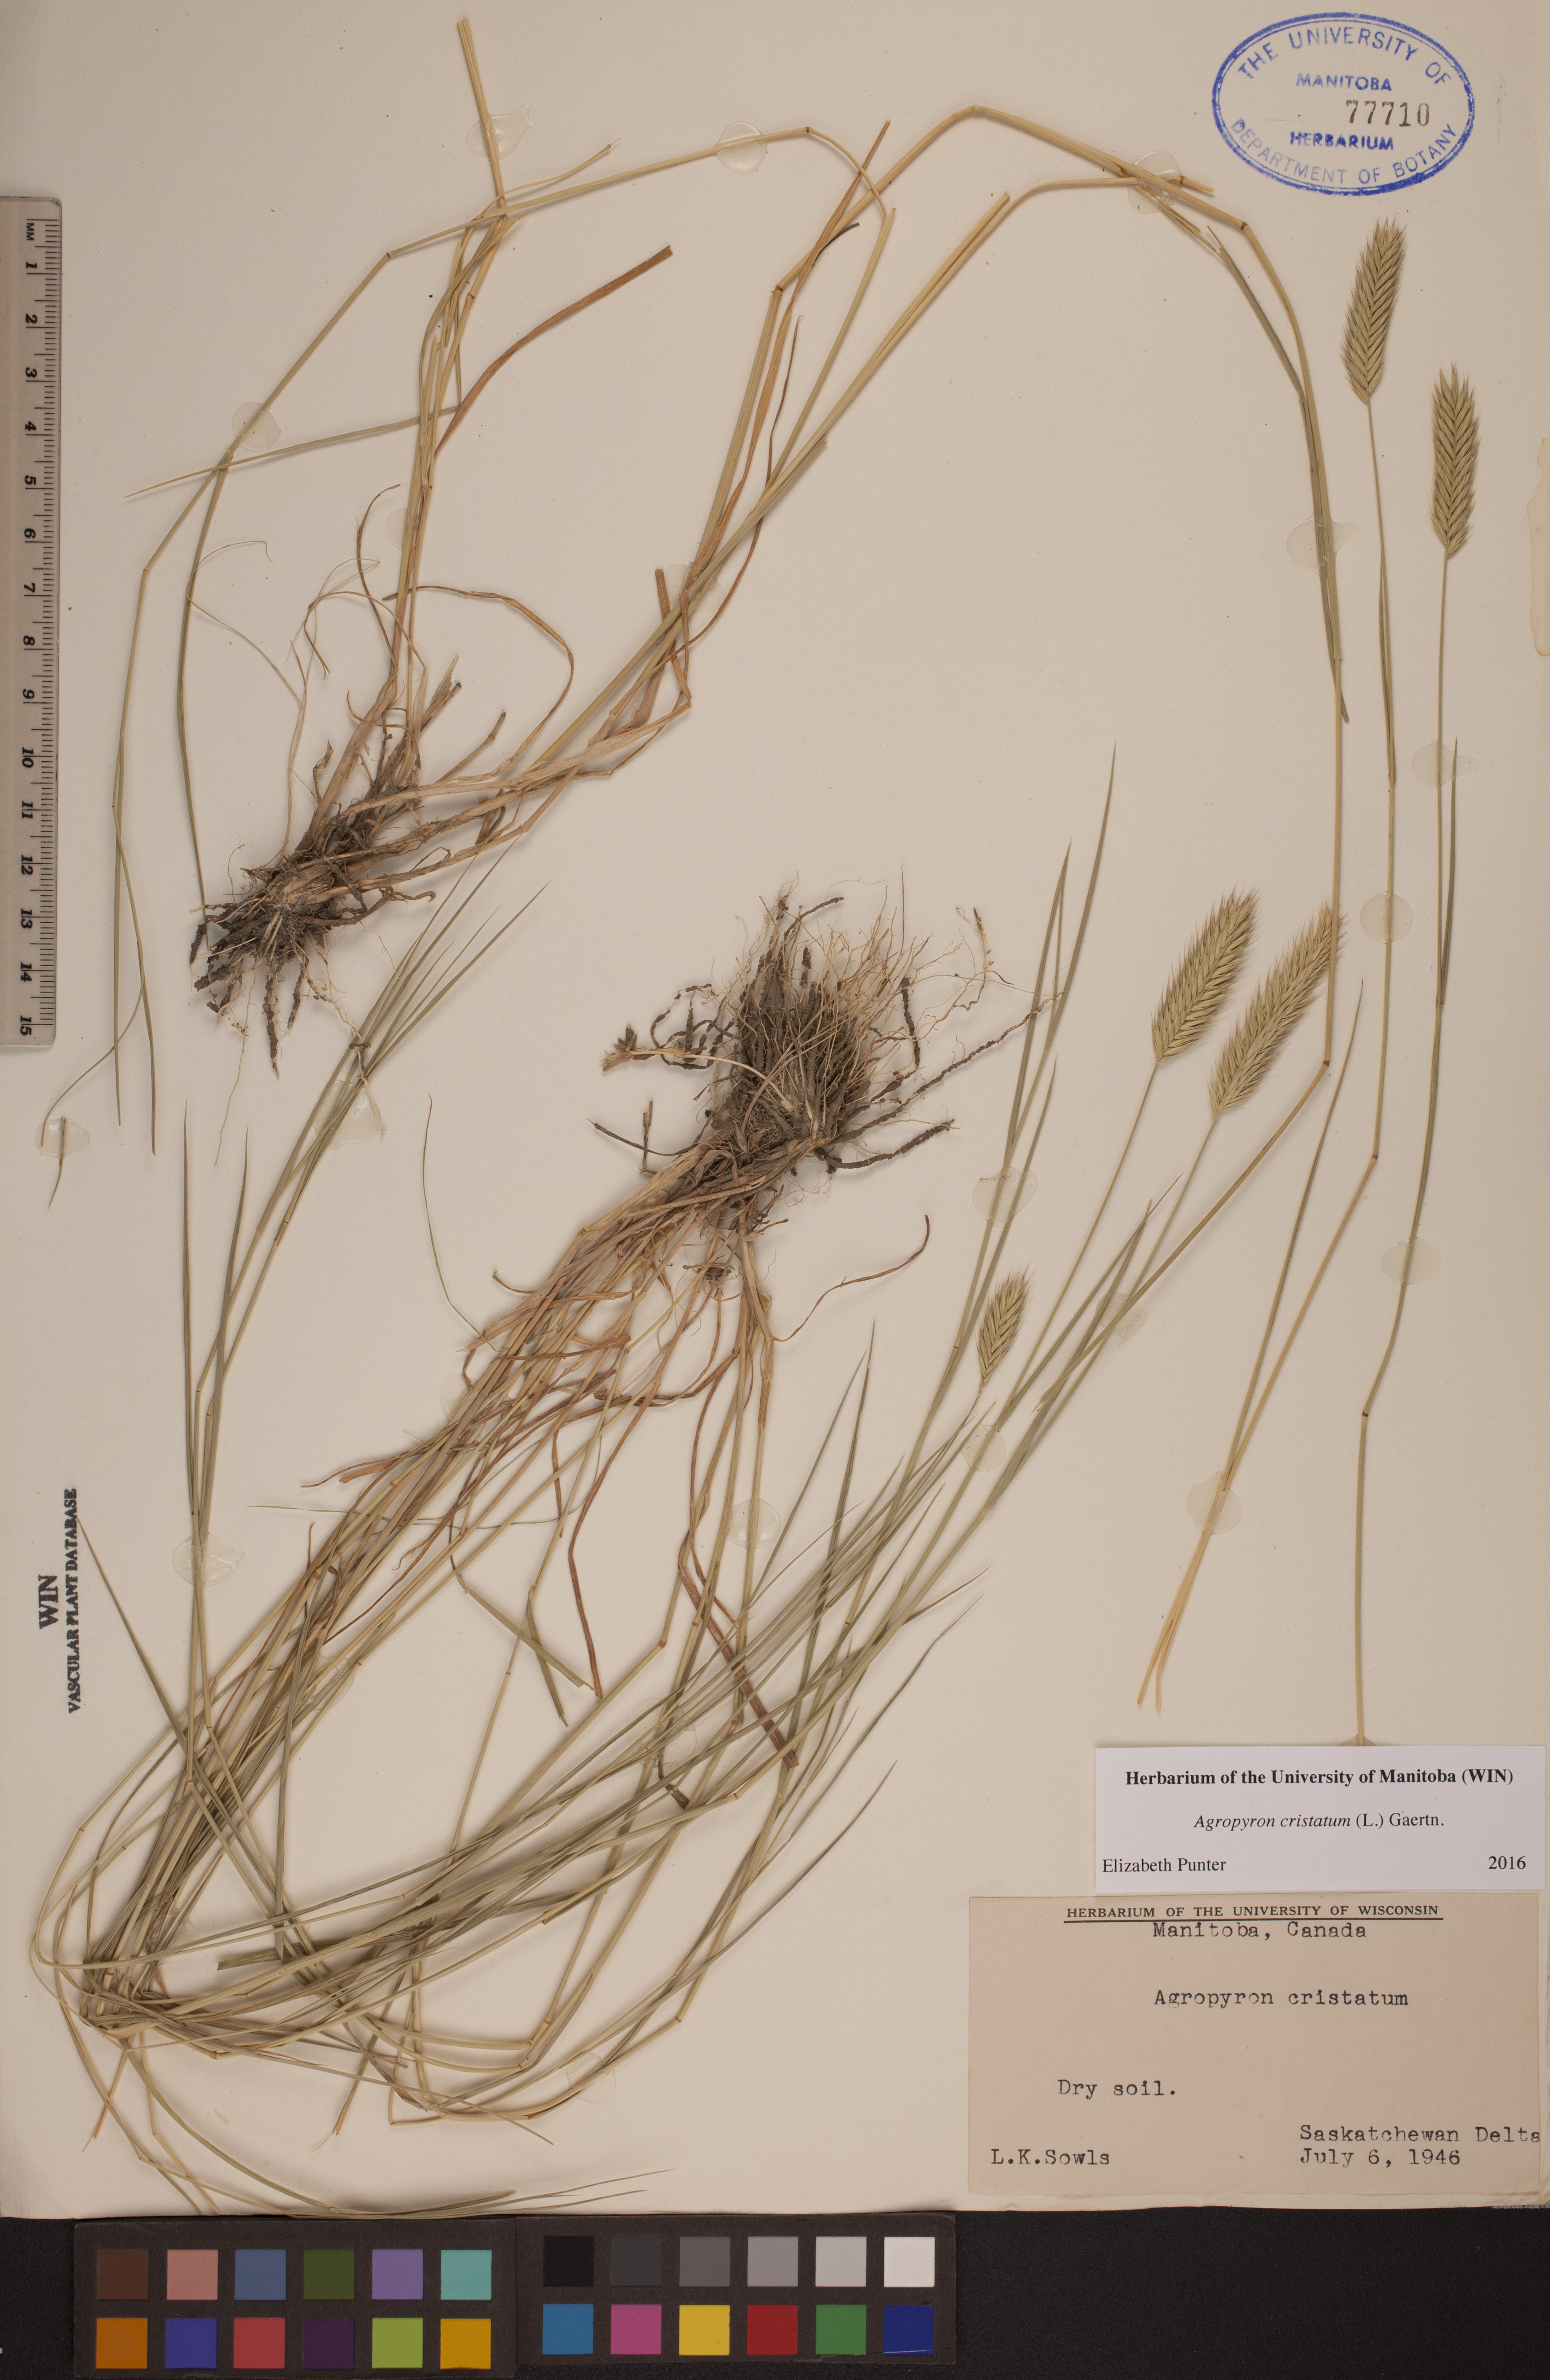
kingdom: Plantae
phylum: Tracheophyta
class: Liliopsida
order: Poales
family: Poaceae
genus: Agropyron
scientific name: Agropyron cristatum
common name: Crested wheatgrass
